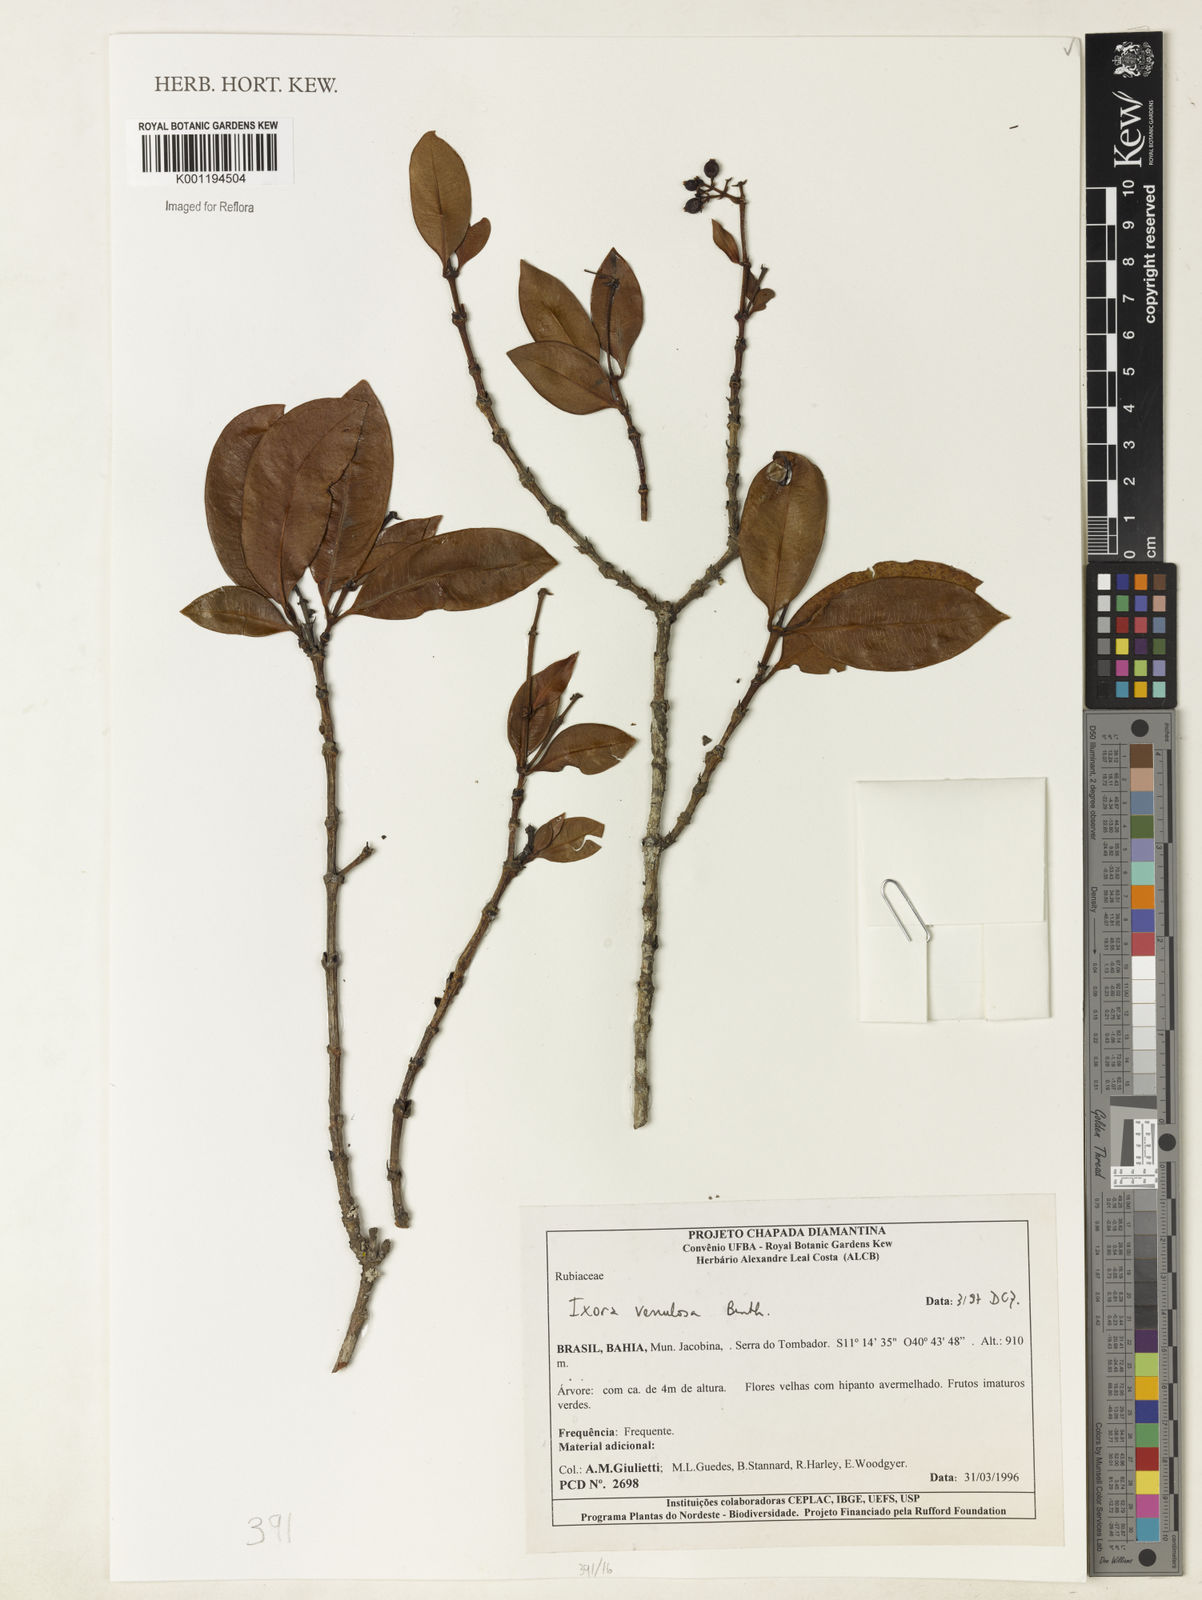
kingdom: Plantae
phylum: Tracheophyta
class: Magnoliopsida
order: Gentianales
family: Rubiaceae
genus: Ixora
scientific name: Ixora venulosa
